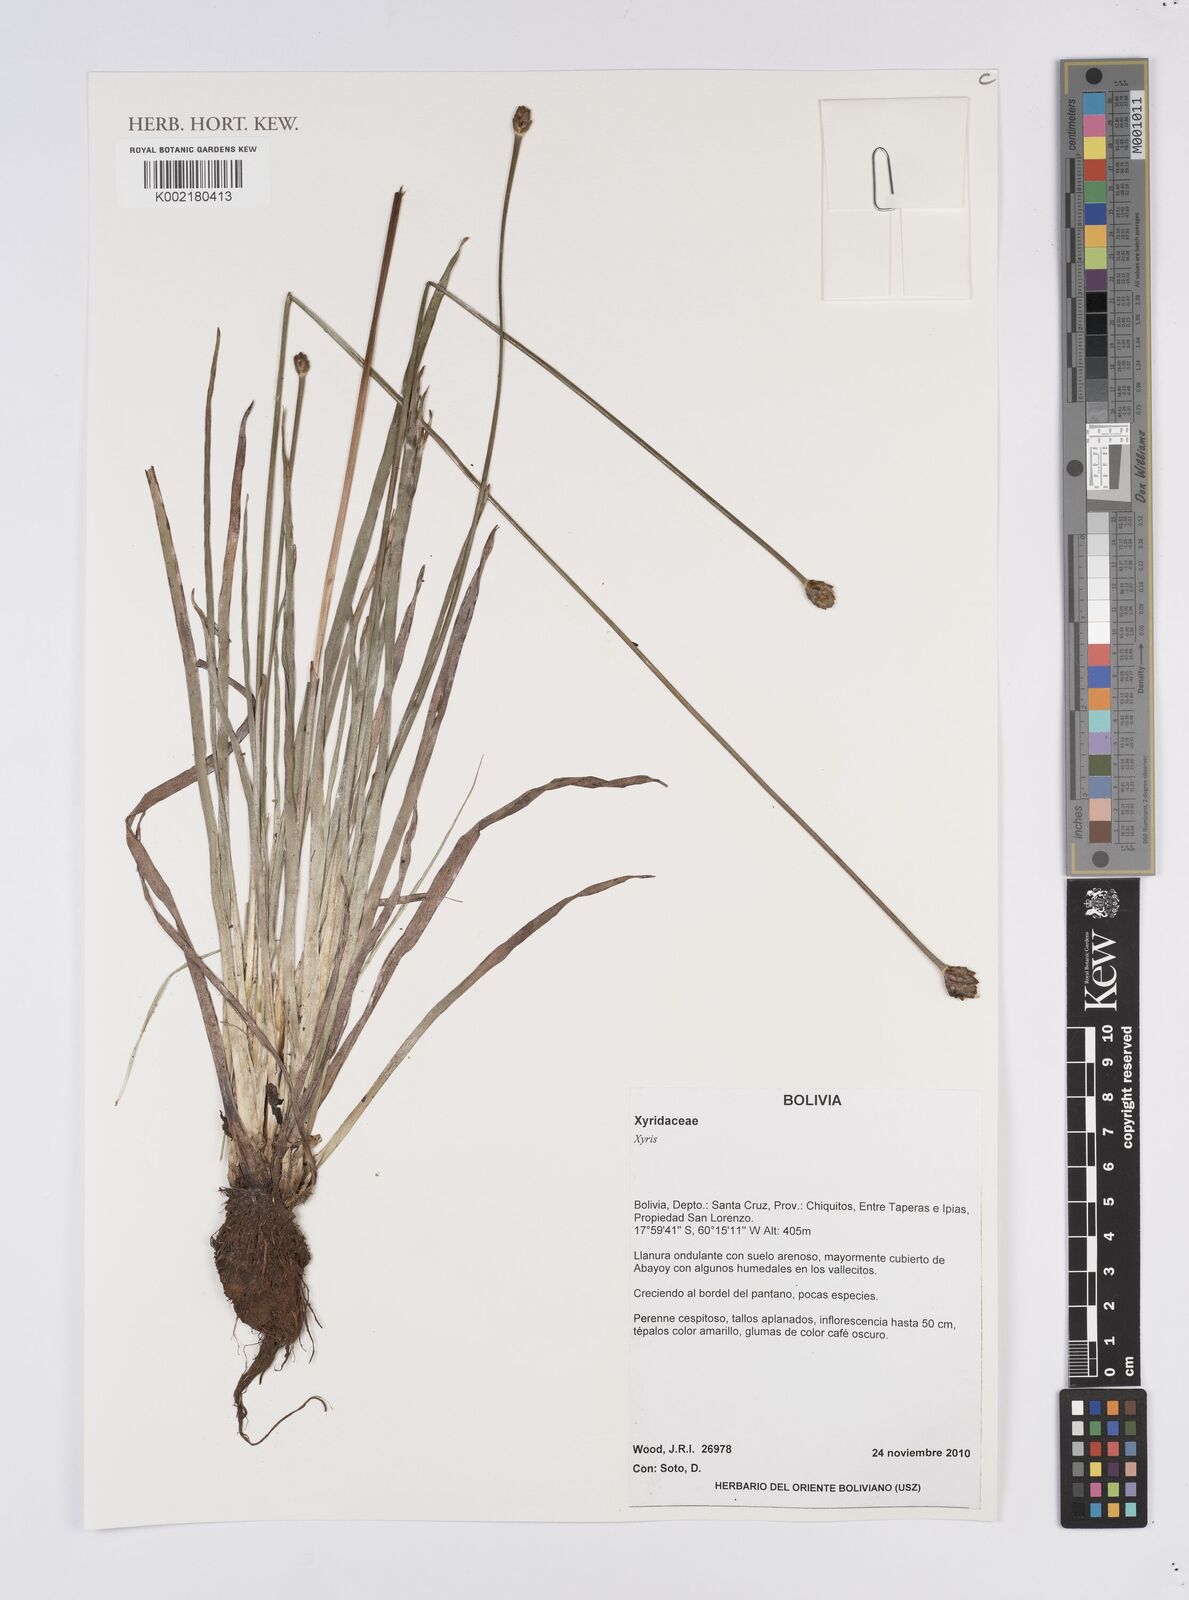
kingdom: Plantae
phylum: Tracheophyta
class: Liliopsida
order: Poales
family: Xyridaceae
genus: Xyris
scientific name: Xyris
